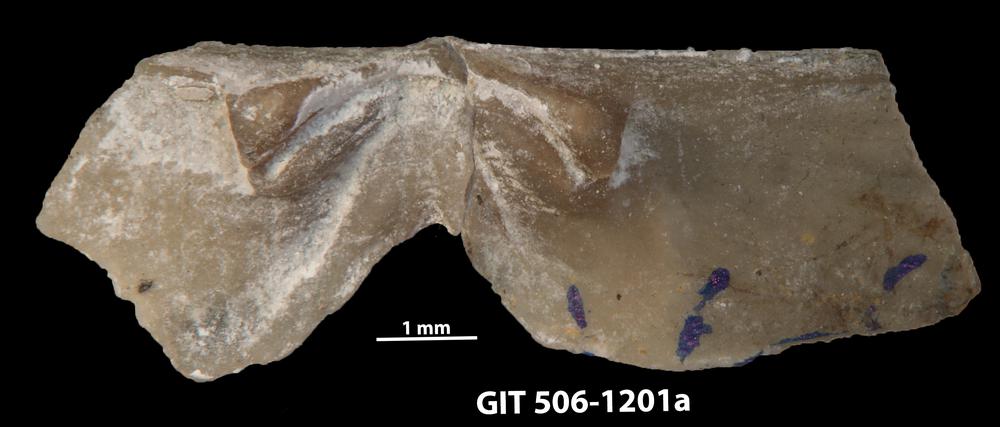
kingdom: Animalia
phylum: Brachiopoda
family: Chilidiopsidae
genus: Fardenia
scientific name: Fardenia Orthis applanata
